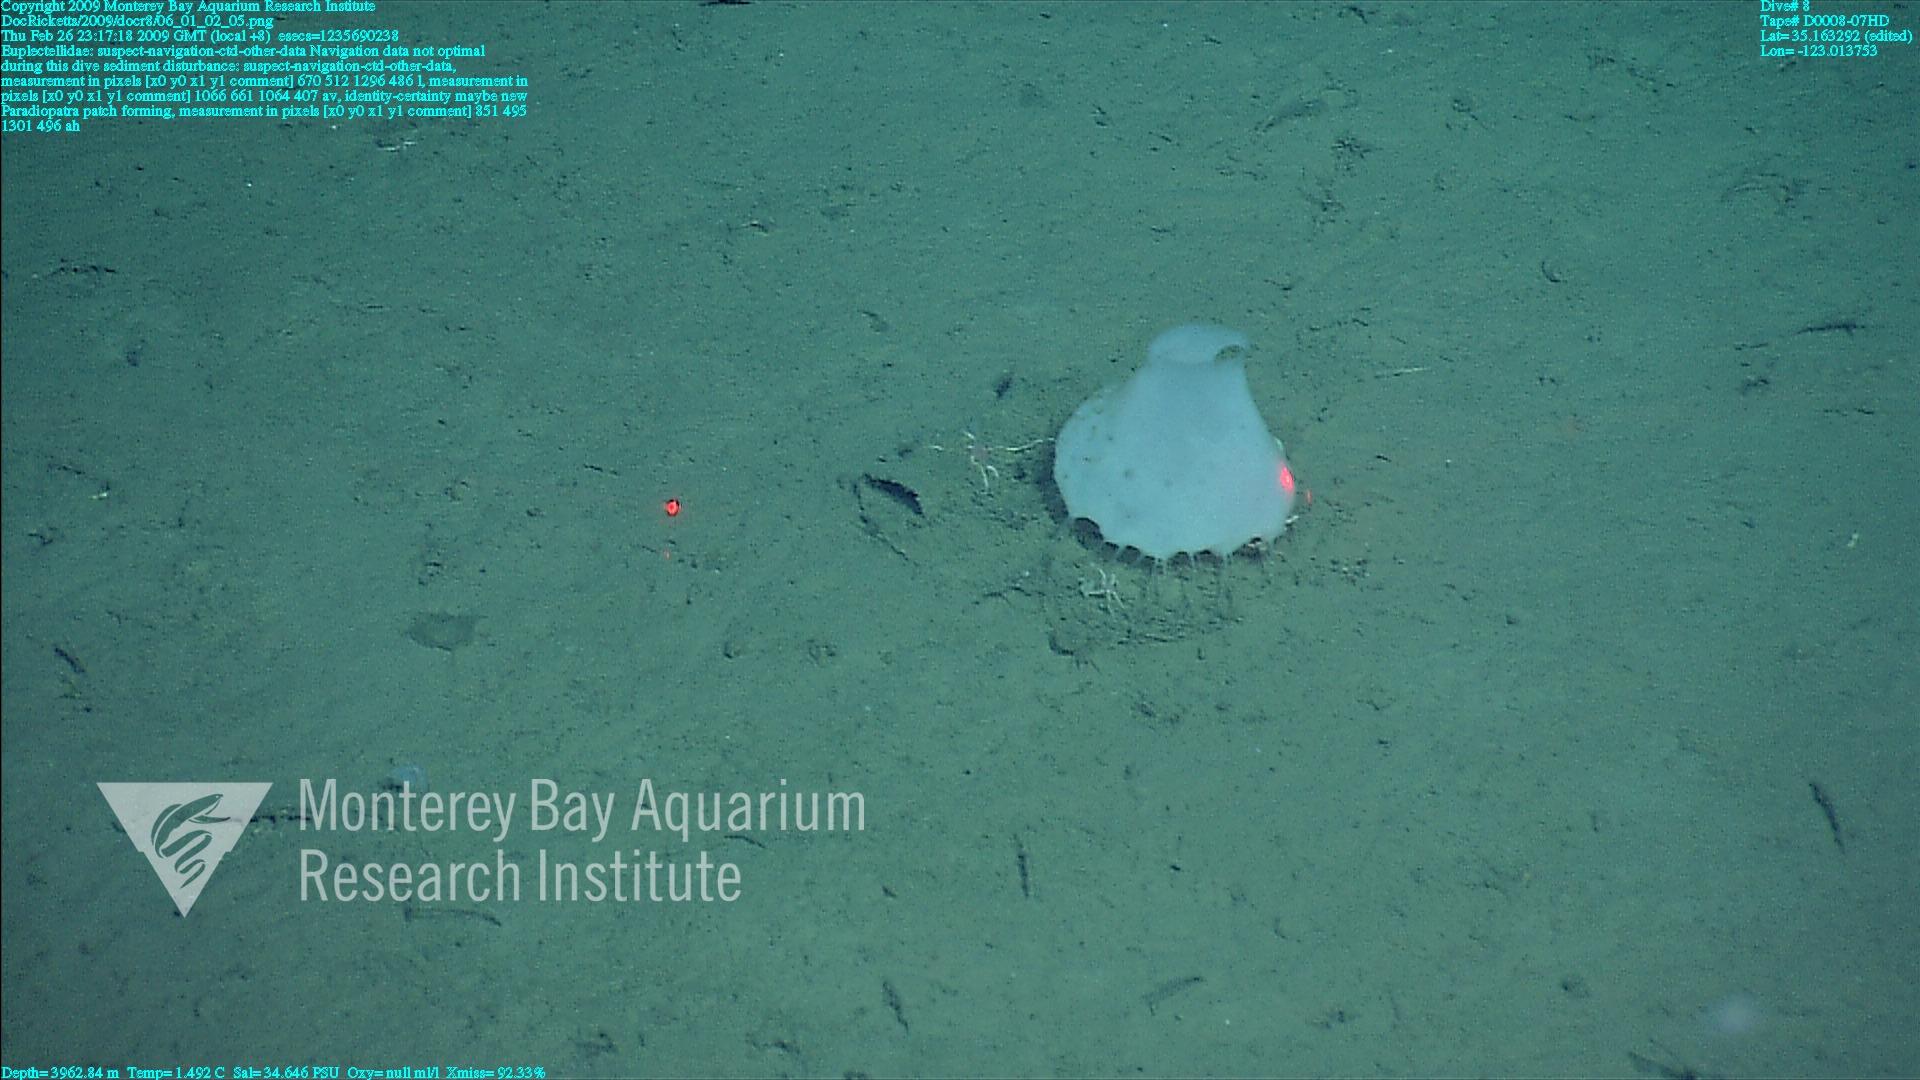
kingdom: Animalia
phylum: Porifera
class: Hexactinellida
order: Lyssacinosida
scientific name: Lyssacinosida
